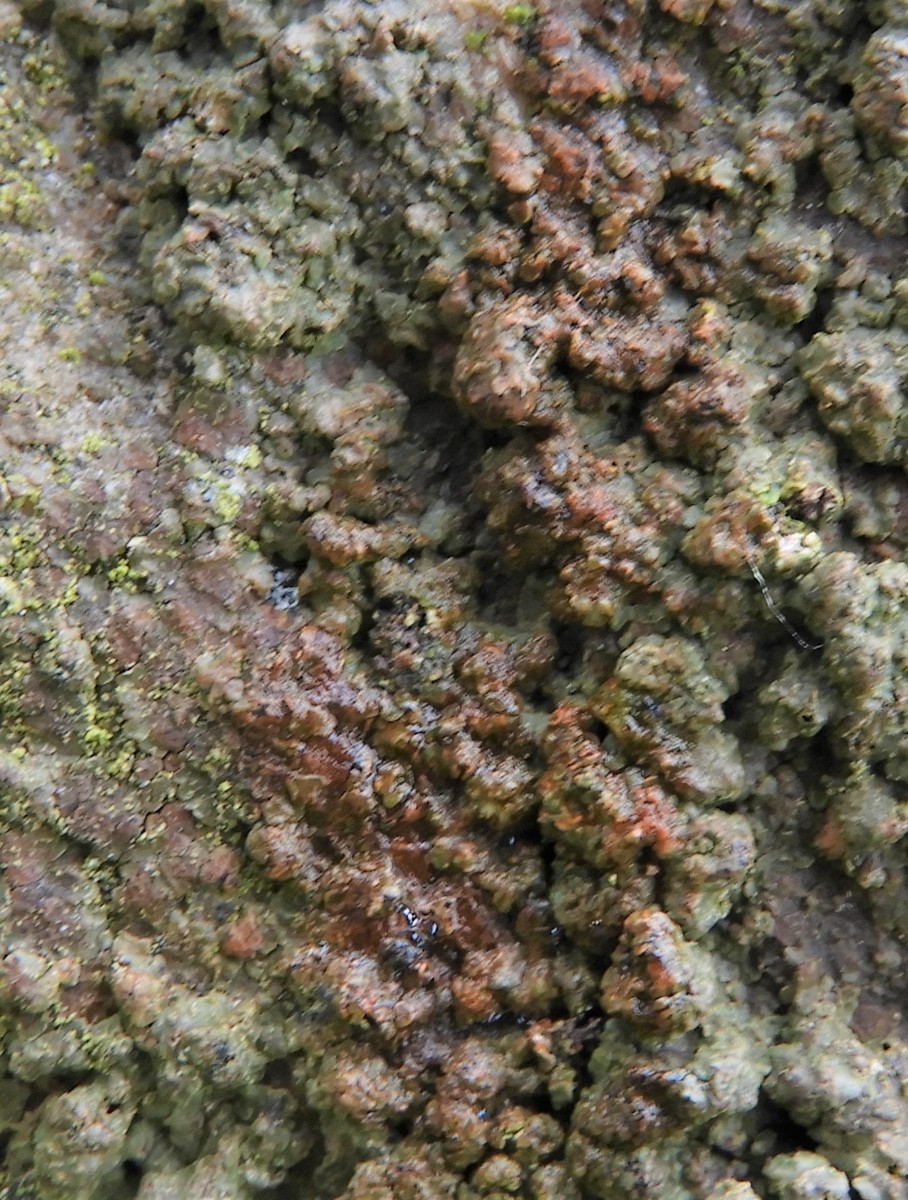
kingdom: Fungi
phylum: Ascomycota
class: Lecanoromycetes
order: Baeomycetales
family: Baeomycetaceae
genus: Baeomyces
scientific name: Baeomyces rufus
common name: rødbrun svampelav
